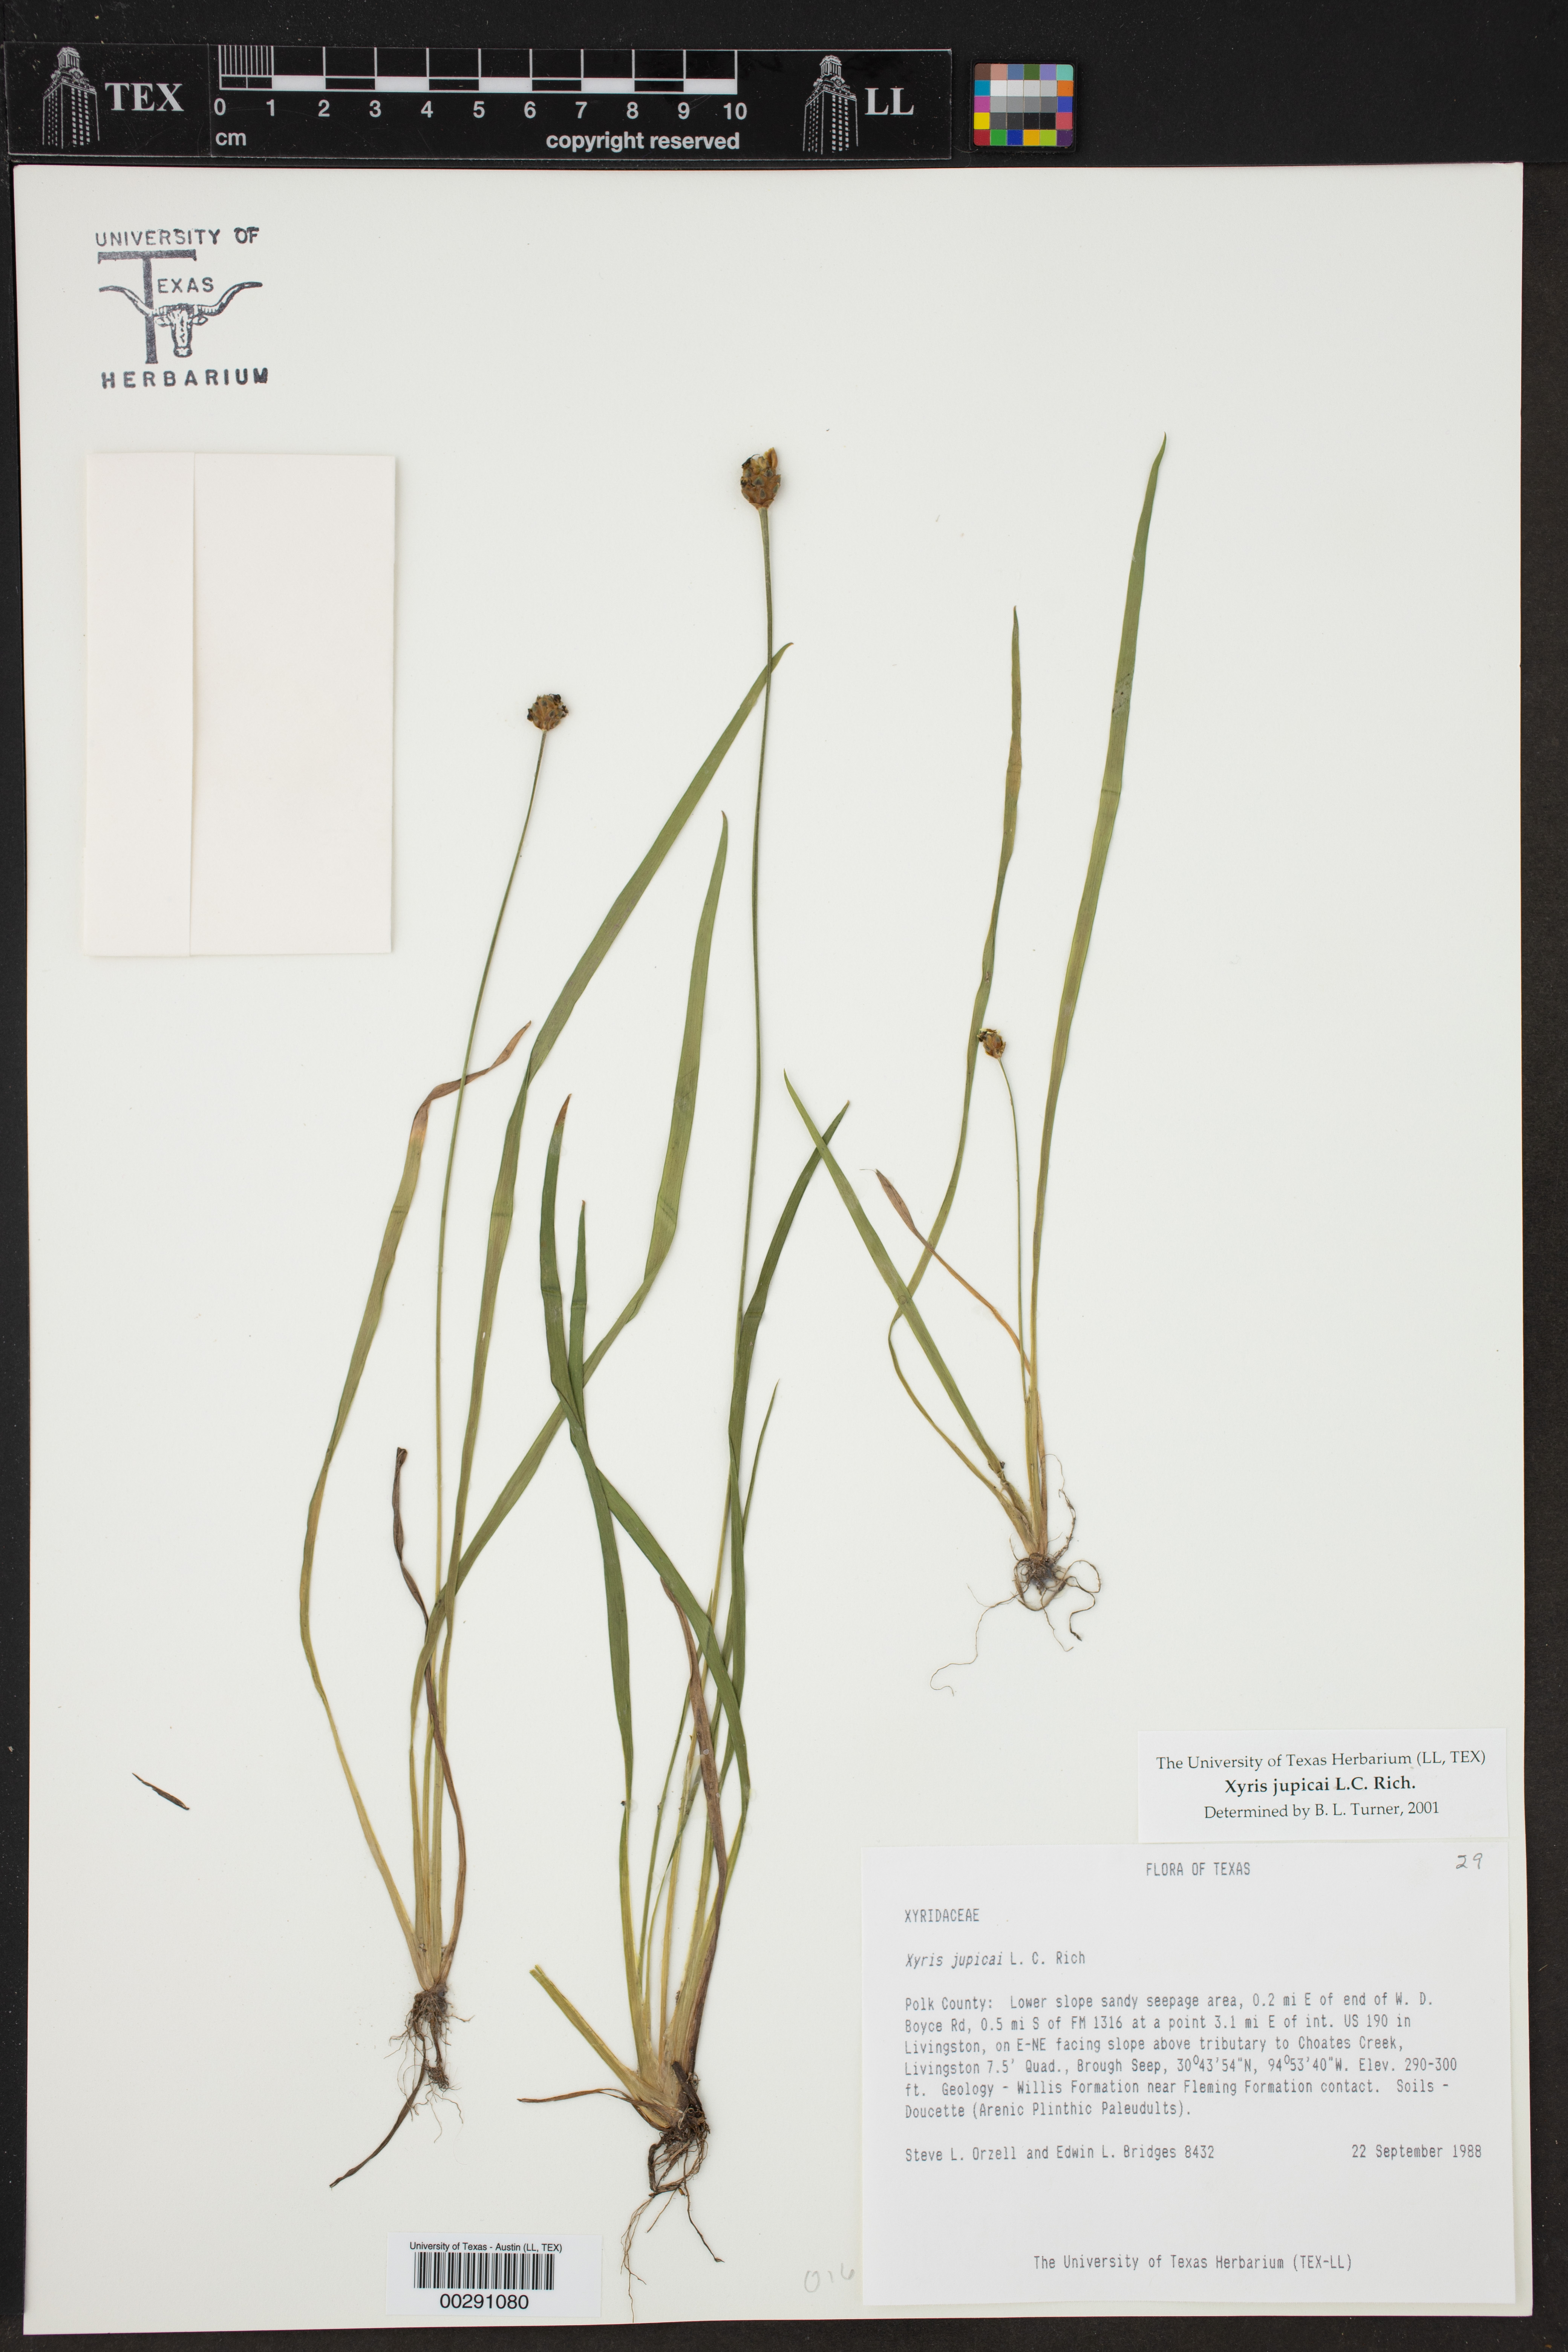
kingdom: Plantae
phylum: Tracheophyta
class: Liliopsida
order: Poales
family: Xyridaceae
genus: Xyris
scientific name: Xyris jupicai
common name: Richard's yelloweyed grass
